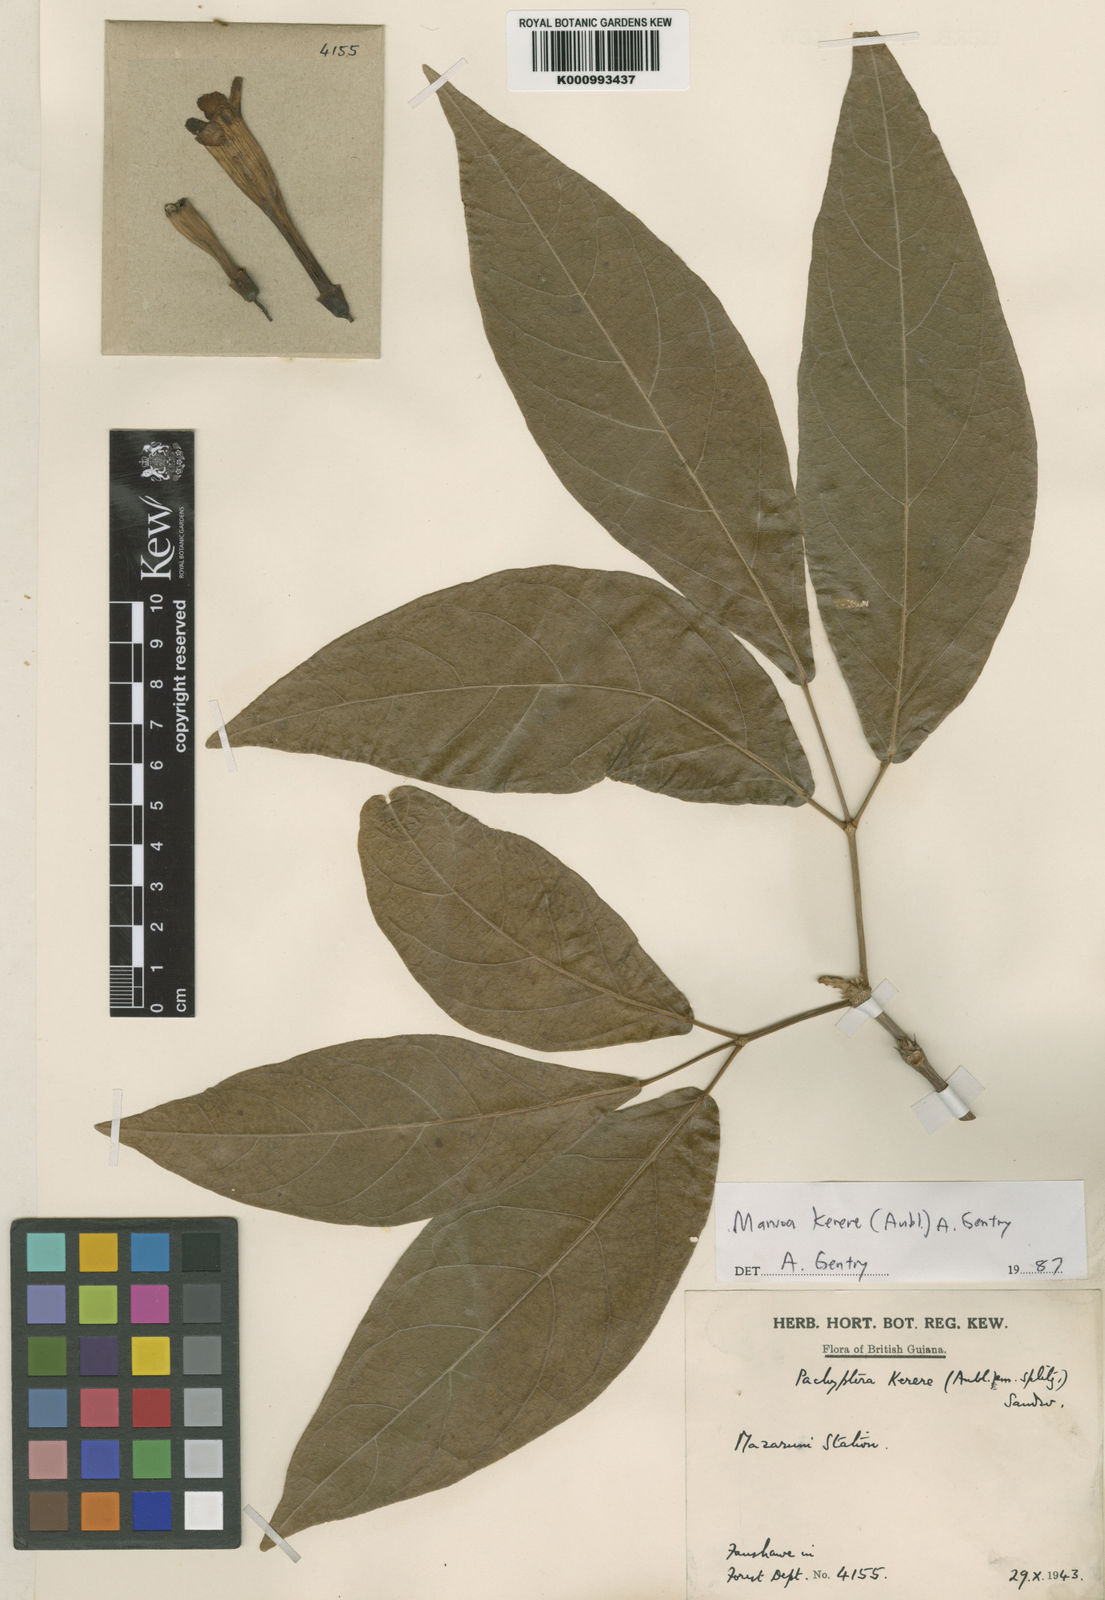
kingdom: Plantae
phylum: Tracheophyta
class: Magnoliopsida
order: Lamiales
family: Bignoniaceae
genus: Pachyptera
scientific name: Pachyptera kerere
